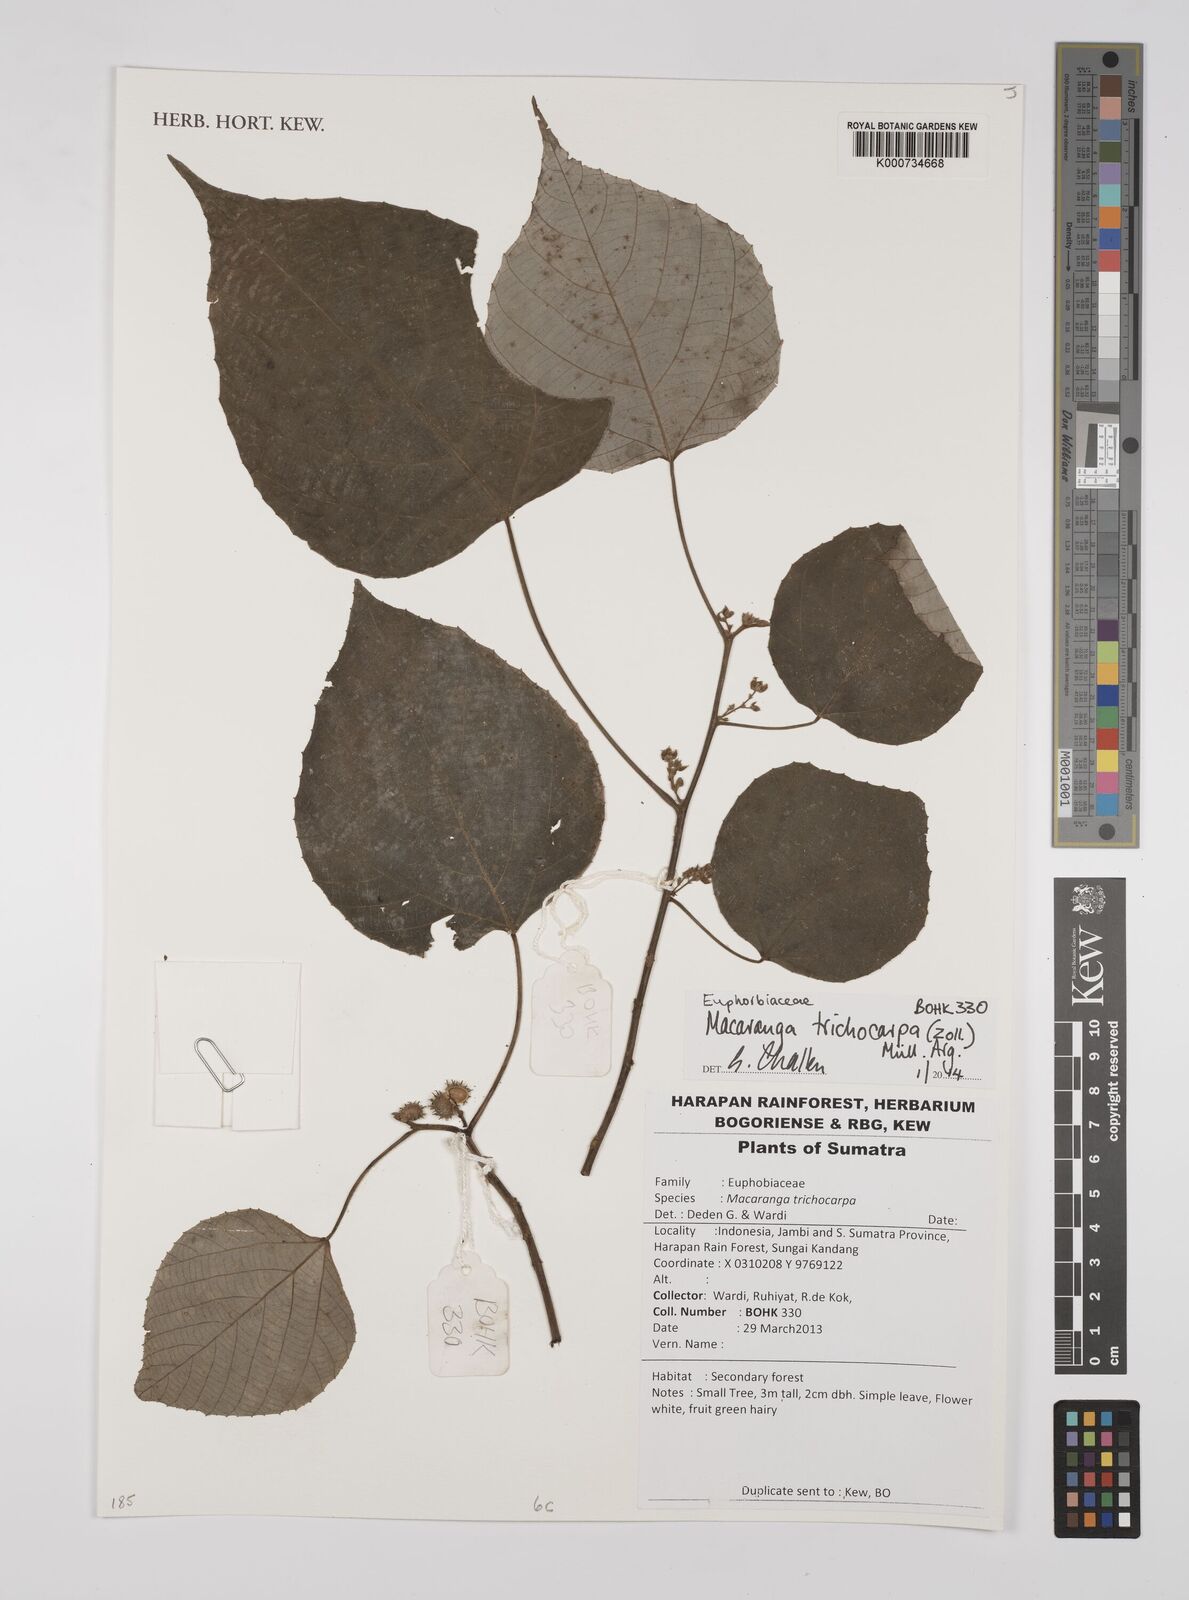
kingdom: Plantae
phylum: Tracheophyta
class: Magnoliopsida
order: Malpighiales
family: Euphorbiaceae
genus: Macaranga
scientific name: Macaranga
